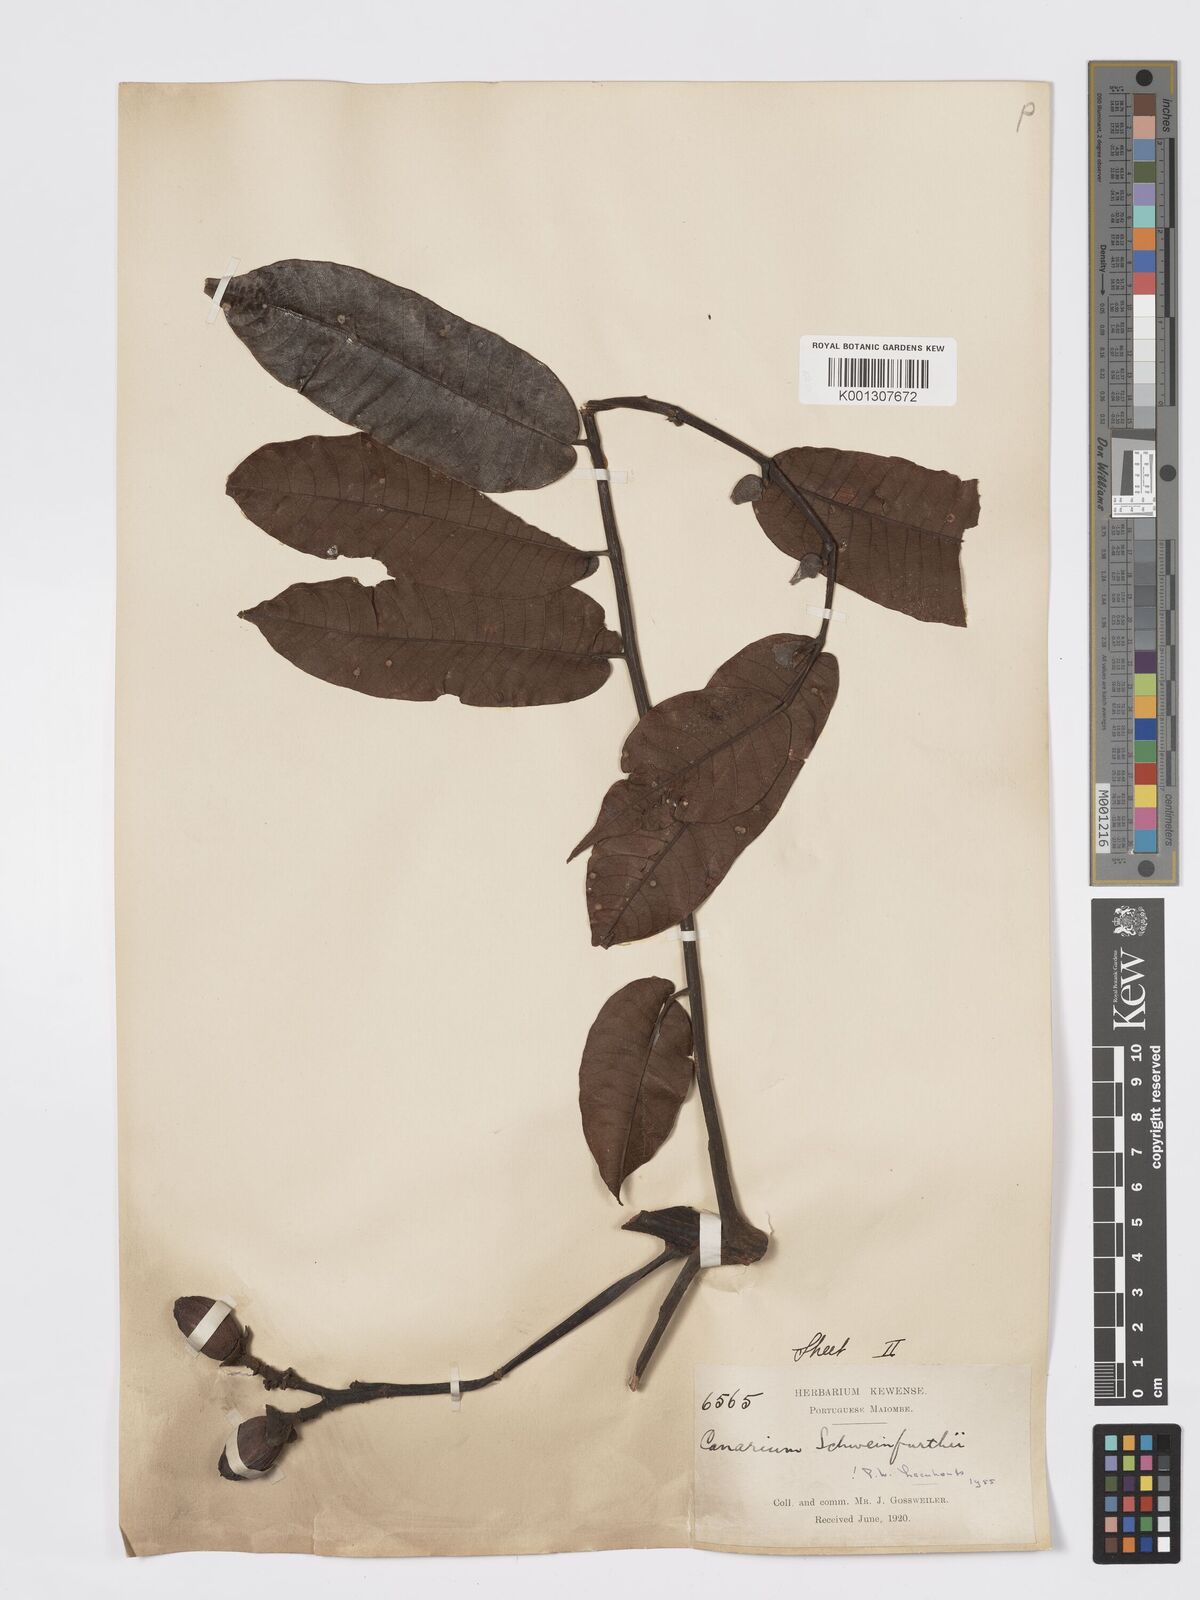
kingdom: Plantae
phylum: Tracheophyta
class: Magnoliopsida
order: Sapindales
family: Burseraceae
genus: Canarium
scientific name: Canarium schweinfurthii
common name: African elemi
